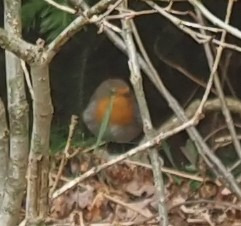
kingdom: Animalia
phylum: Chordata
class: Aves
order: Passeriformes
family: Muscicapidae
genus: Erithacus
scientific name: Erithacus rubecula
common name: Rødhals/rødkælk
